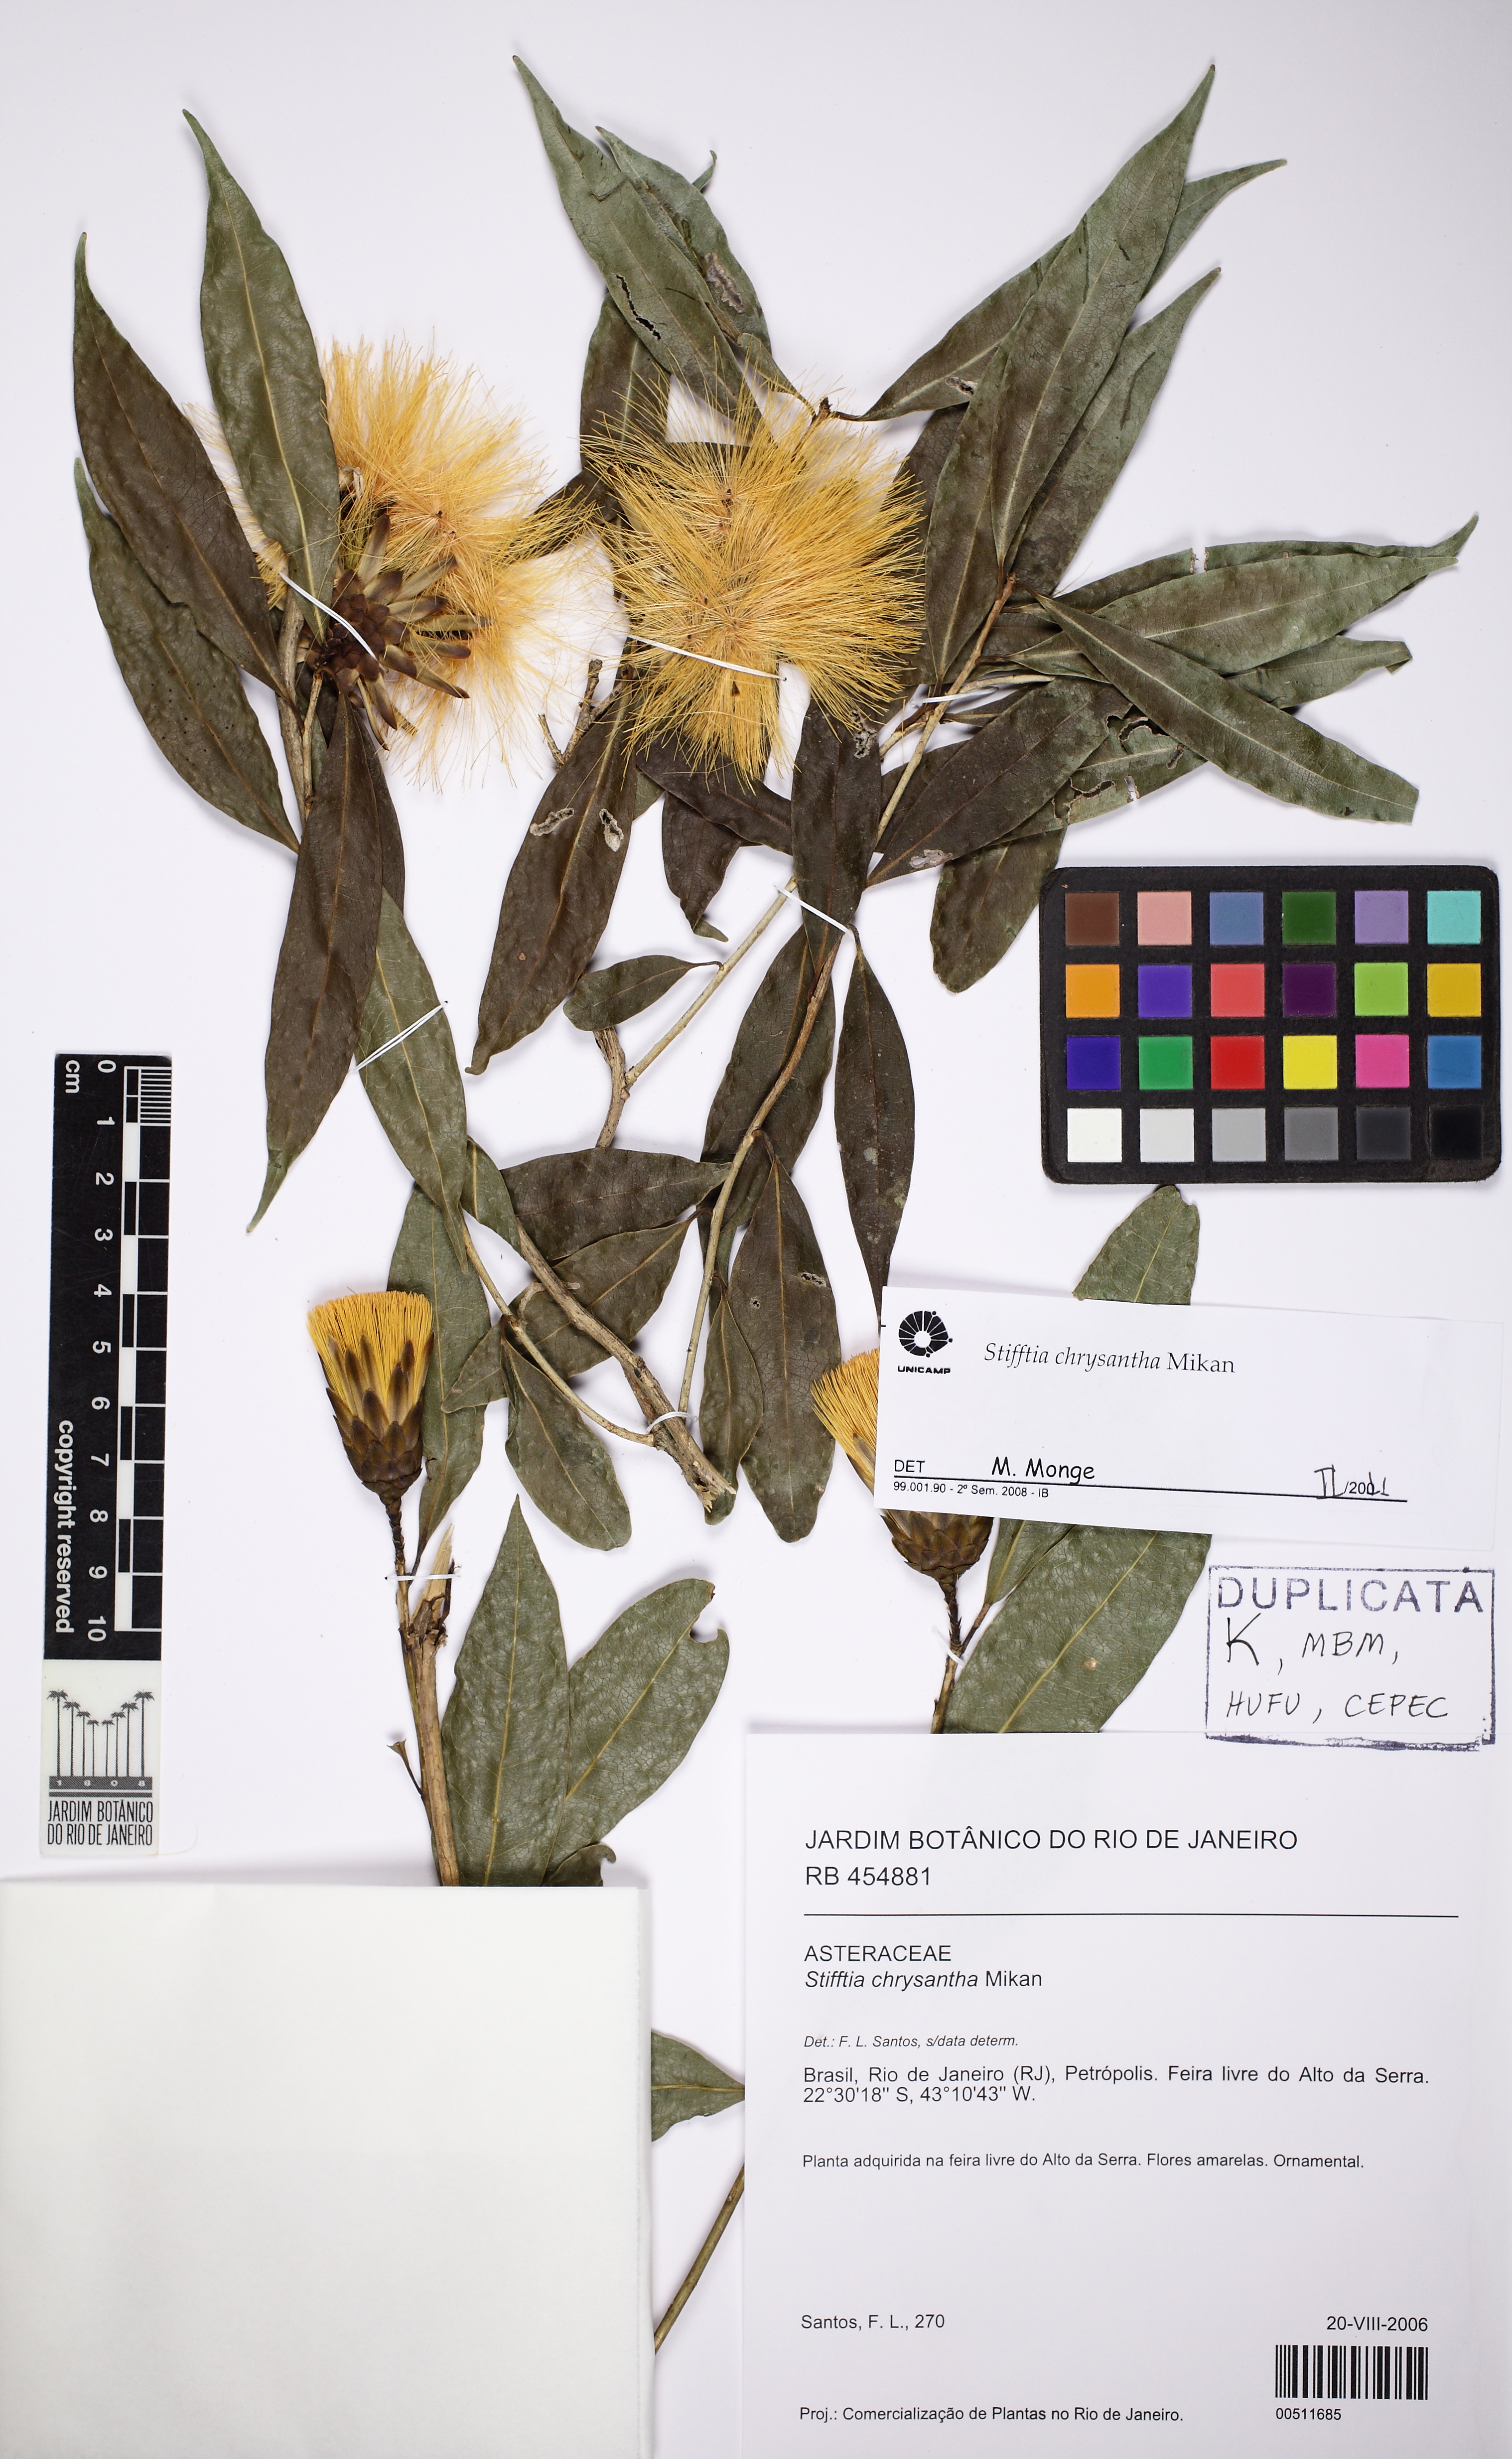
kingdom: Plantae
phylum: Tracheophyta
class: Magnoliopsida
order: Asterales
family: Asteraceae
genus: Stifftia
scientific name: Stifftia chrysantha
